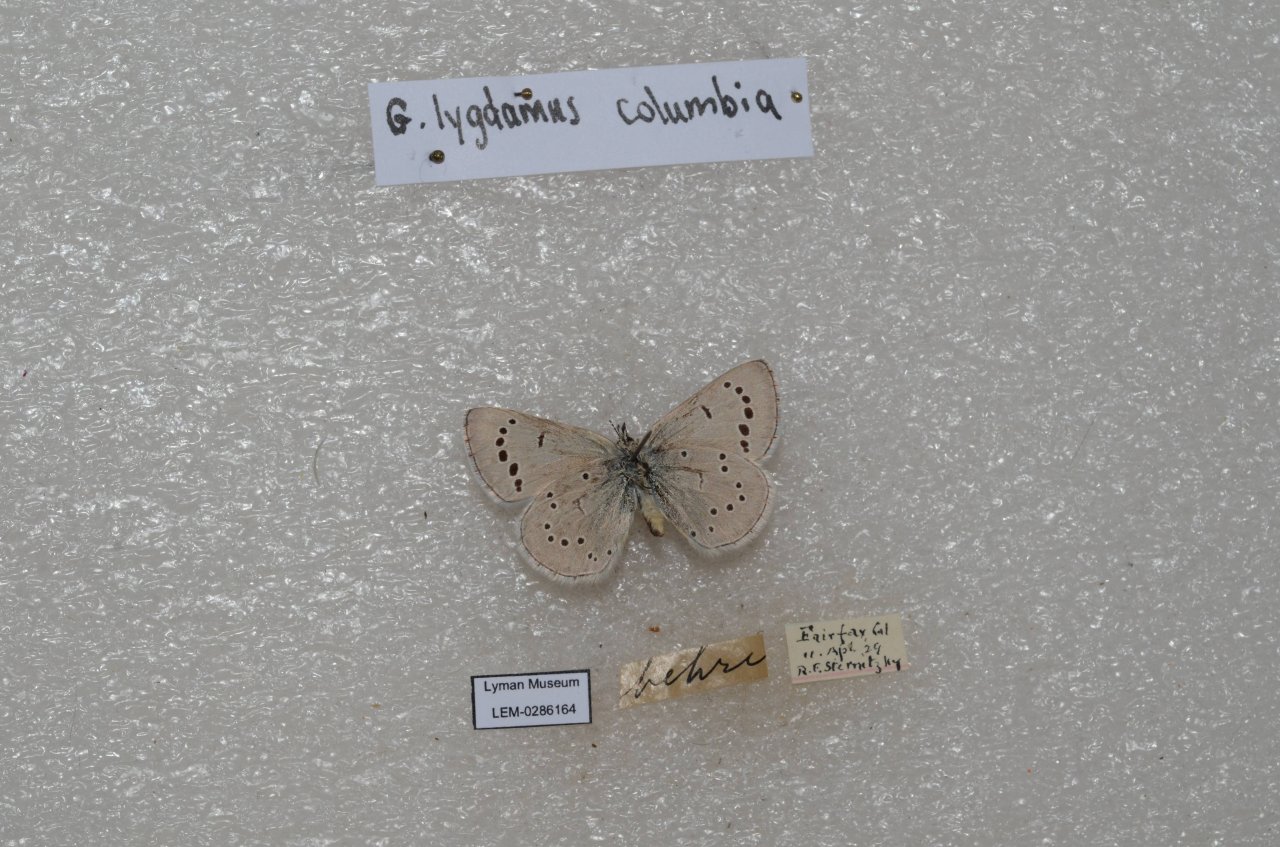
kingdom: Animalia
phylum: Arthropoda
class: Insecta
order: Lepidoptera
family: Lycaenidae
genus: Glaucopsyche
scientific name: Glaucopsyche lygdamus
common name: Silvery Blue
